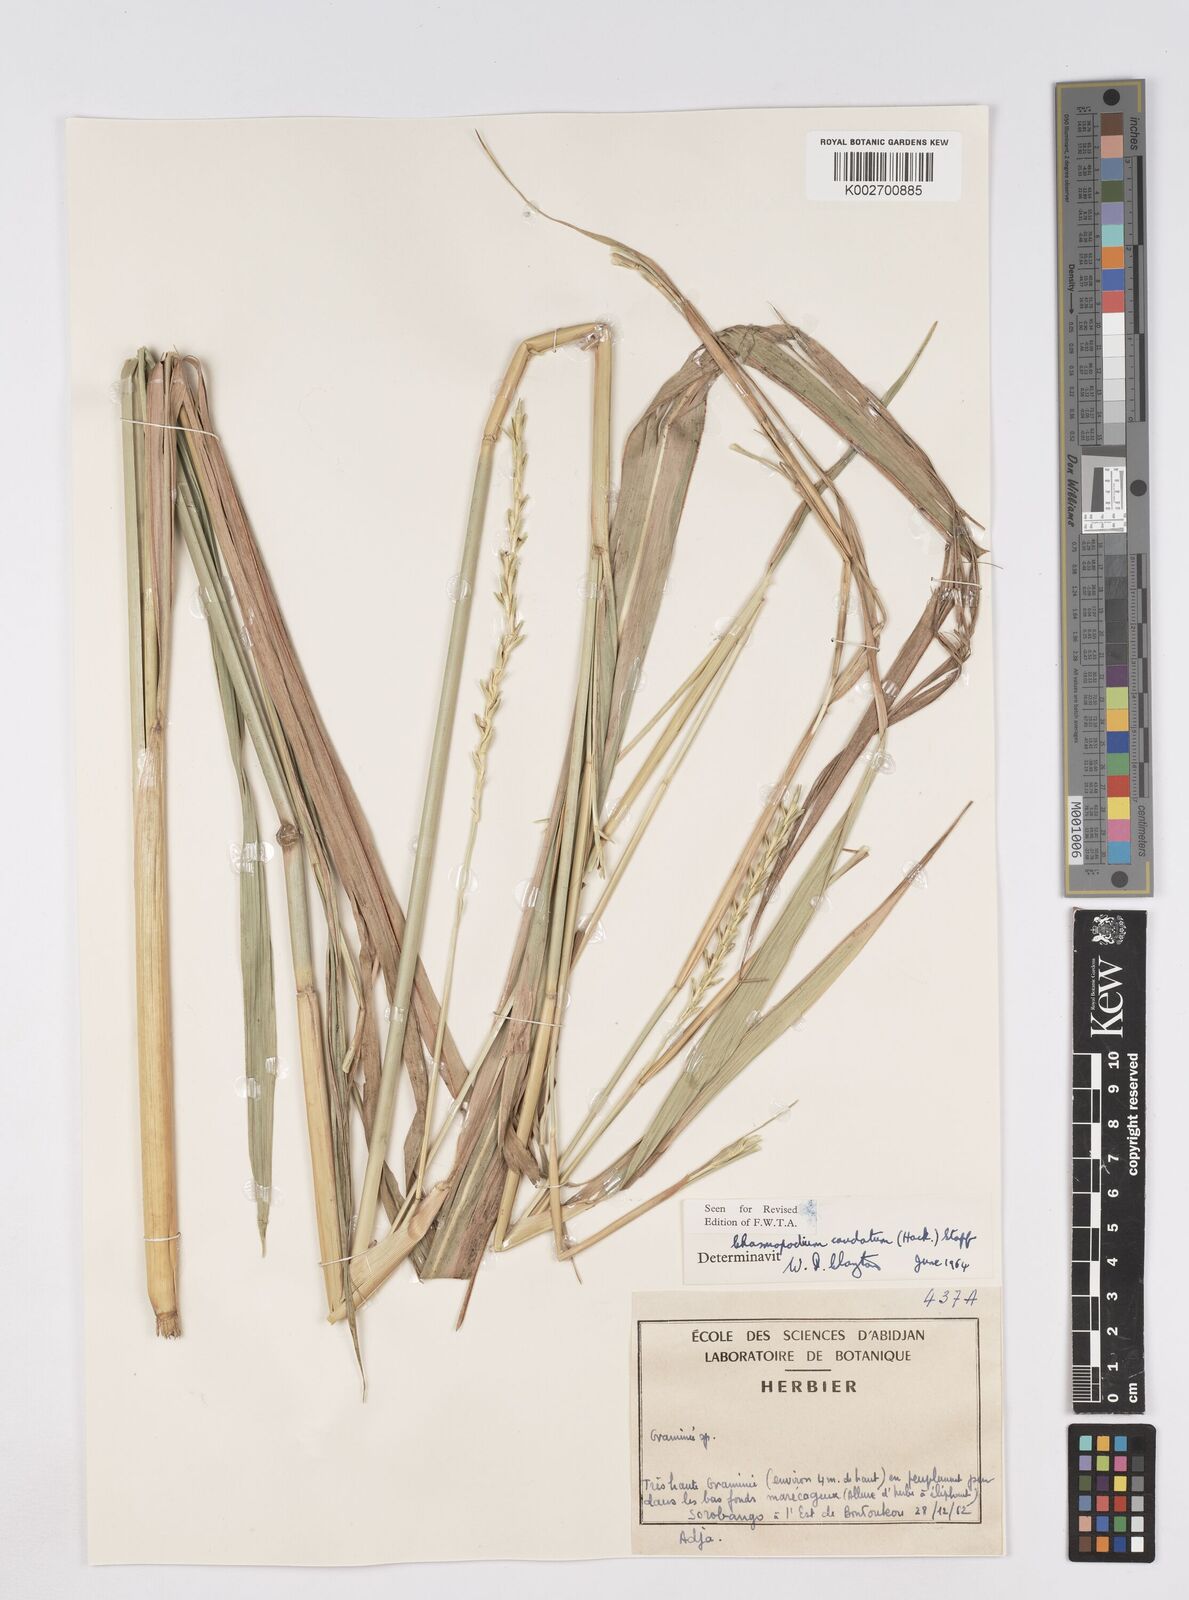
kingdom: Plantae
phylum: Tracheophyta
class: Liliopsida
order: Poales
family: Poaceae
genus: Chasmopodium
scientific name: Chasmopodium caudatum
